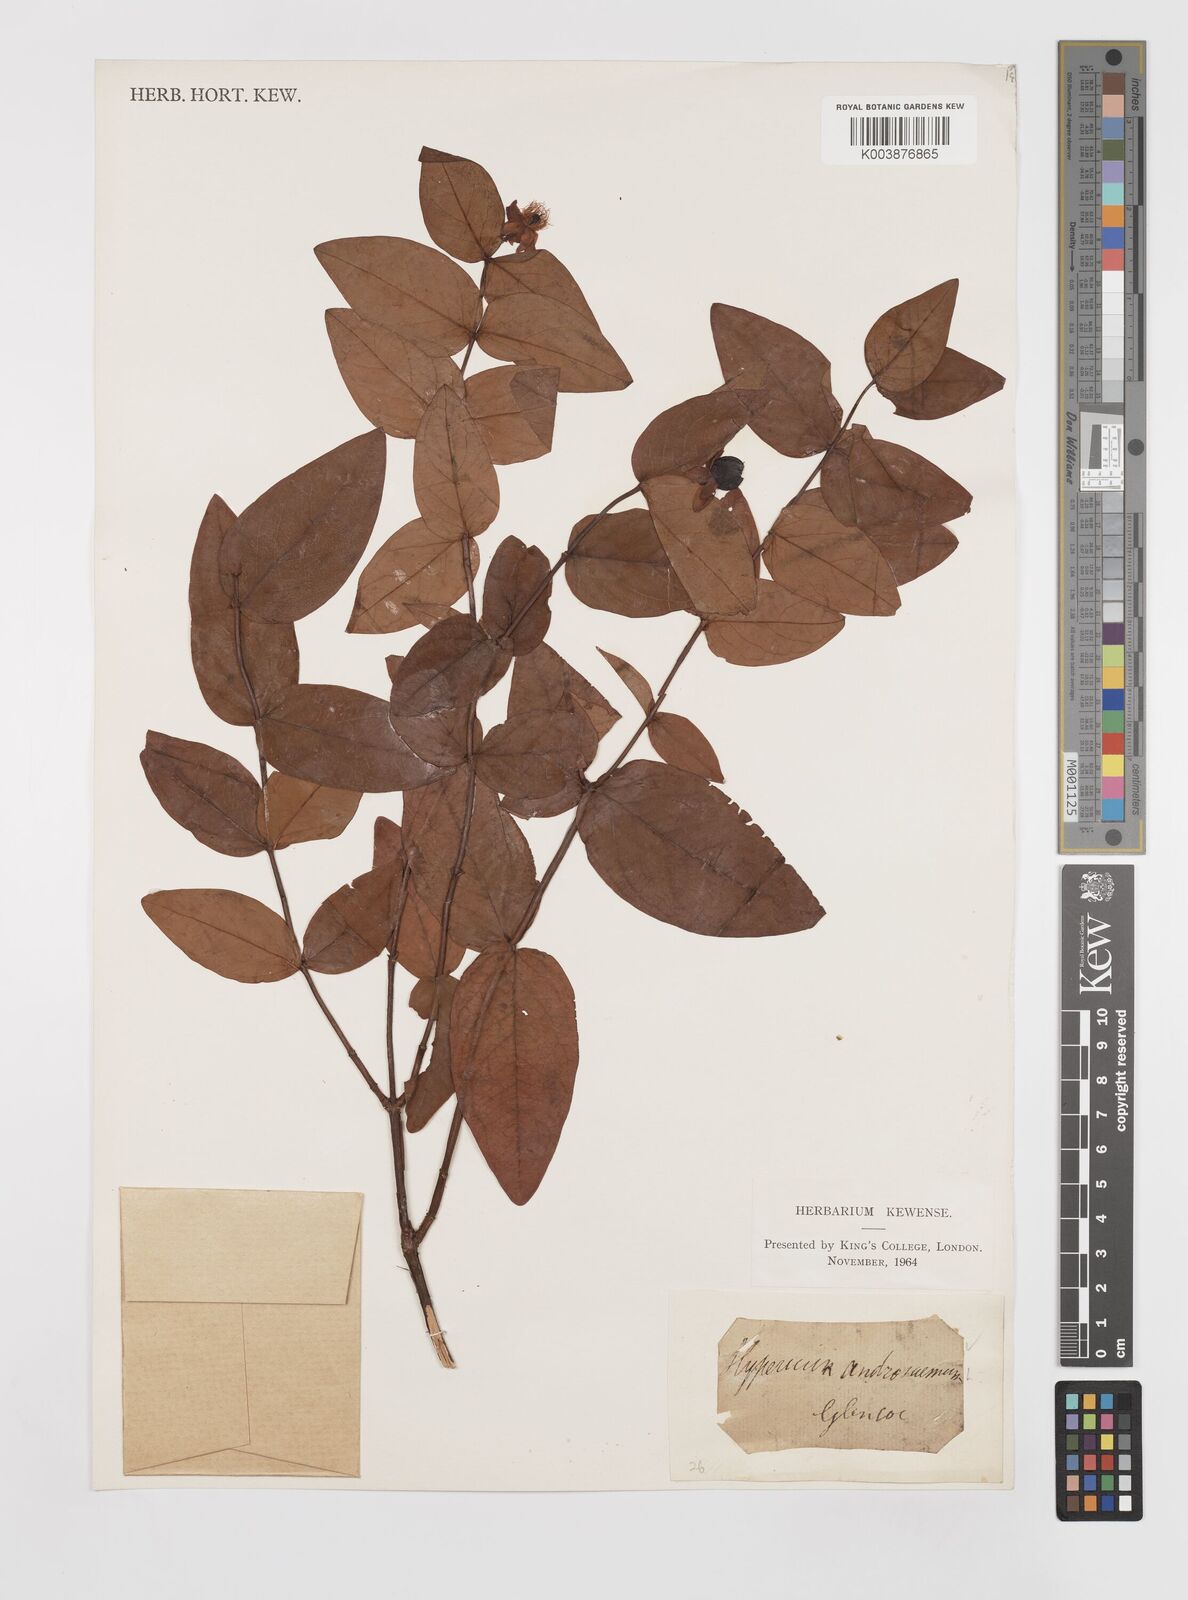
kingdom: Plantae
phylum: Tracheophyta
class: Magnoliopsida
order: Malpighiales
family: Hypericaceae
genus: Hypericum
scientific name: Hypericum androsaemum
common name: Sweet-amber
